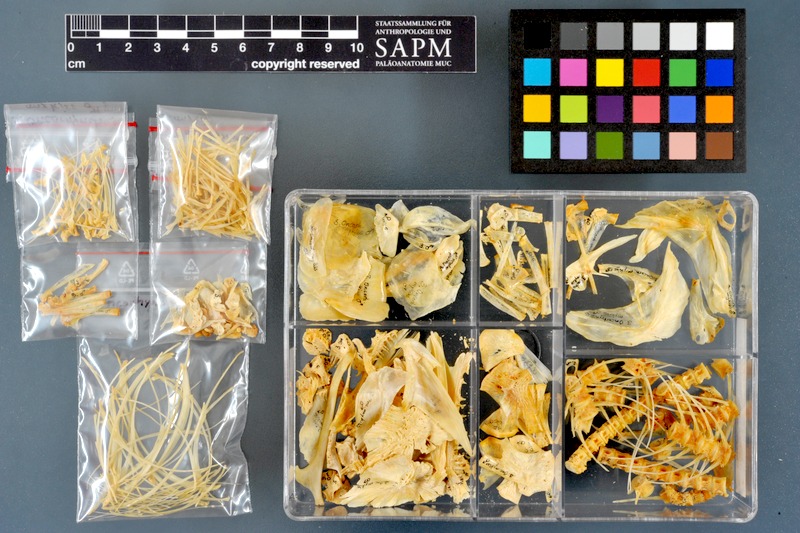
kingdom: Animalia
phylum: Chordata
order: Salmoniformes
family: Salmonidae
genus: Oncorhynchus
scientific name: Oncorhynchus mykiss
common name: Rainbow trout
